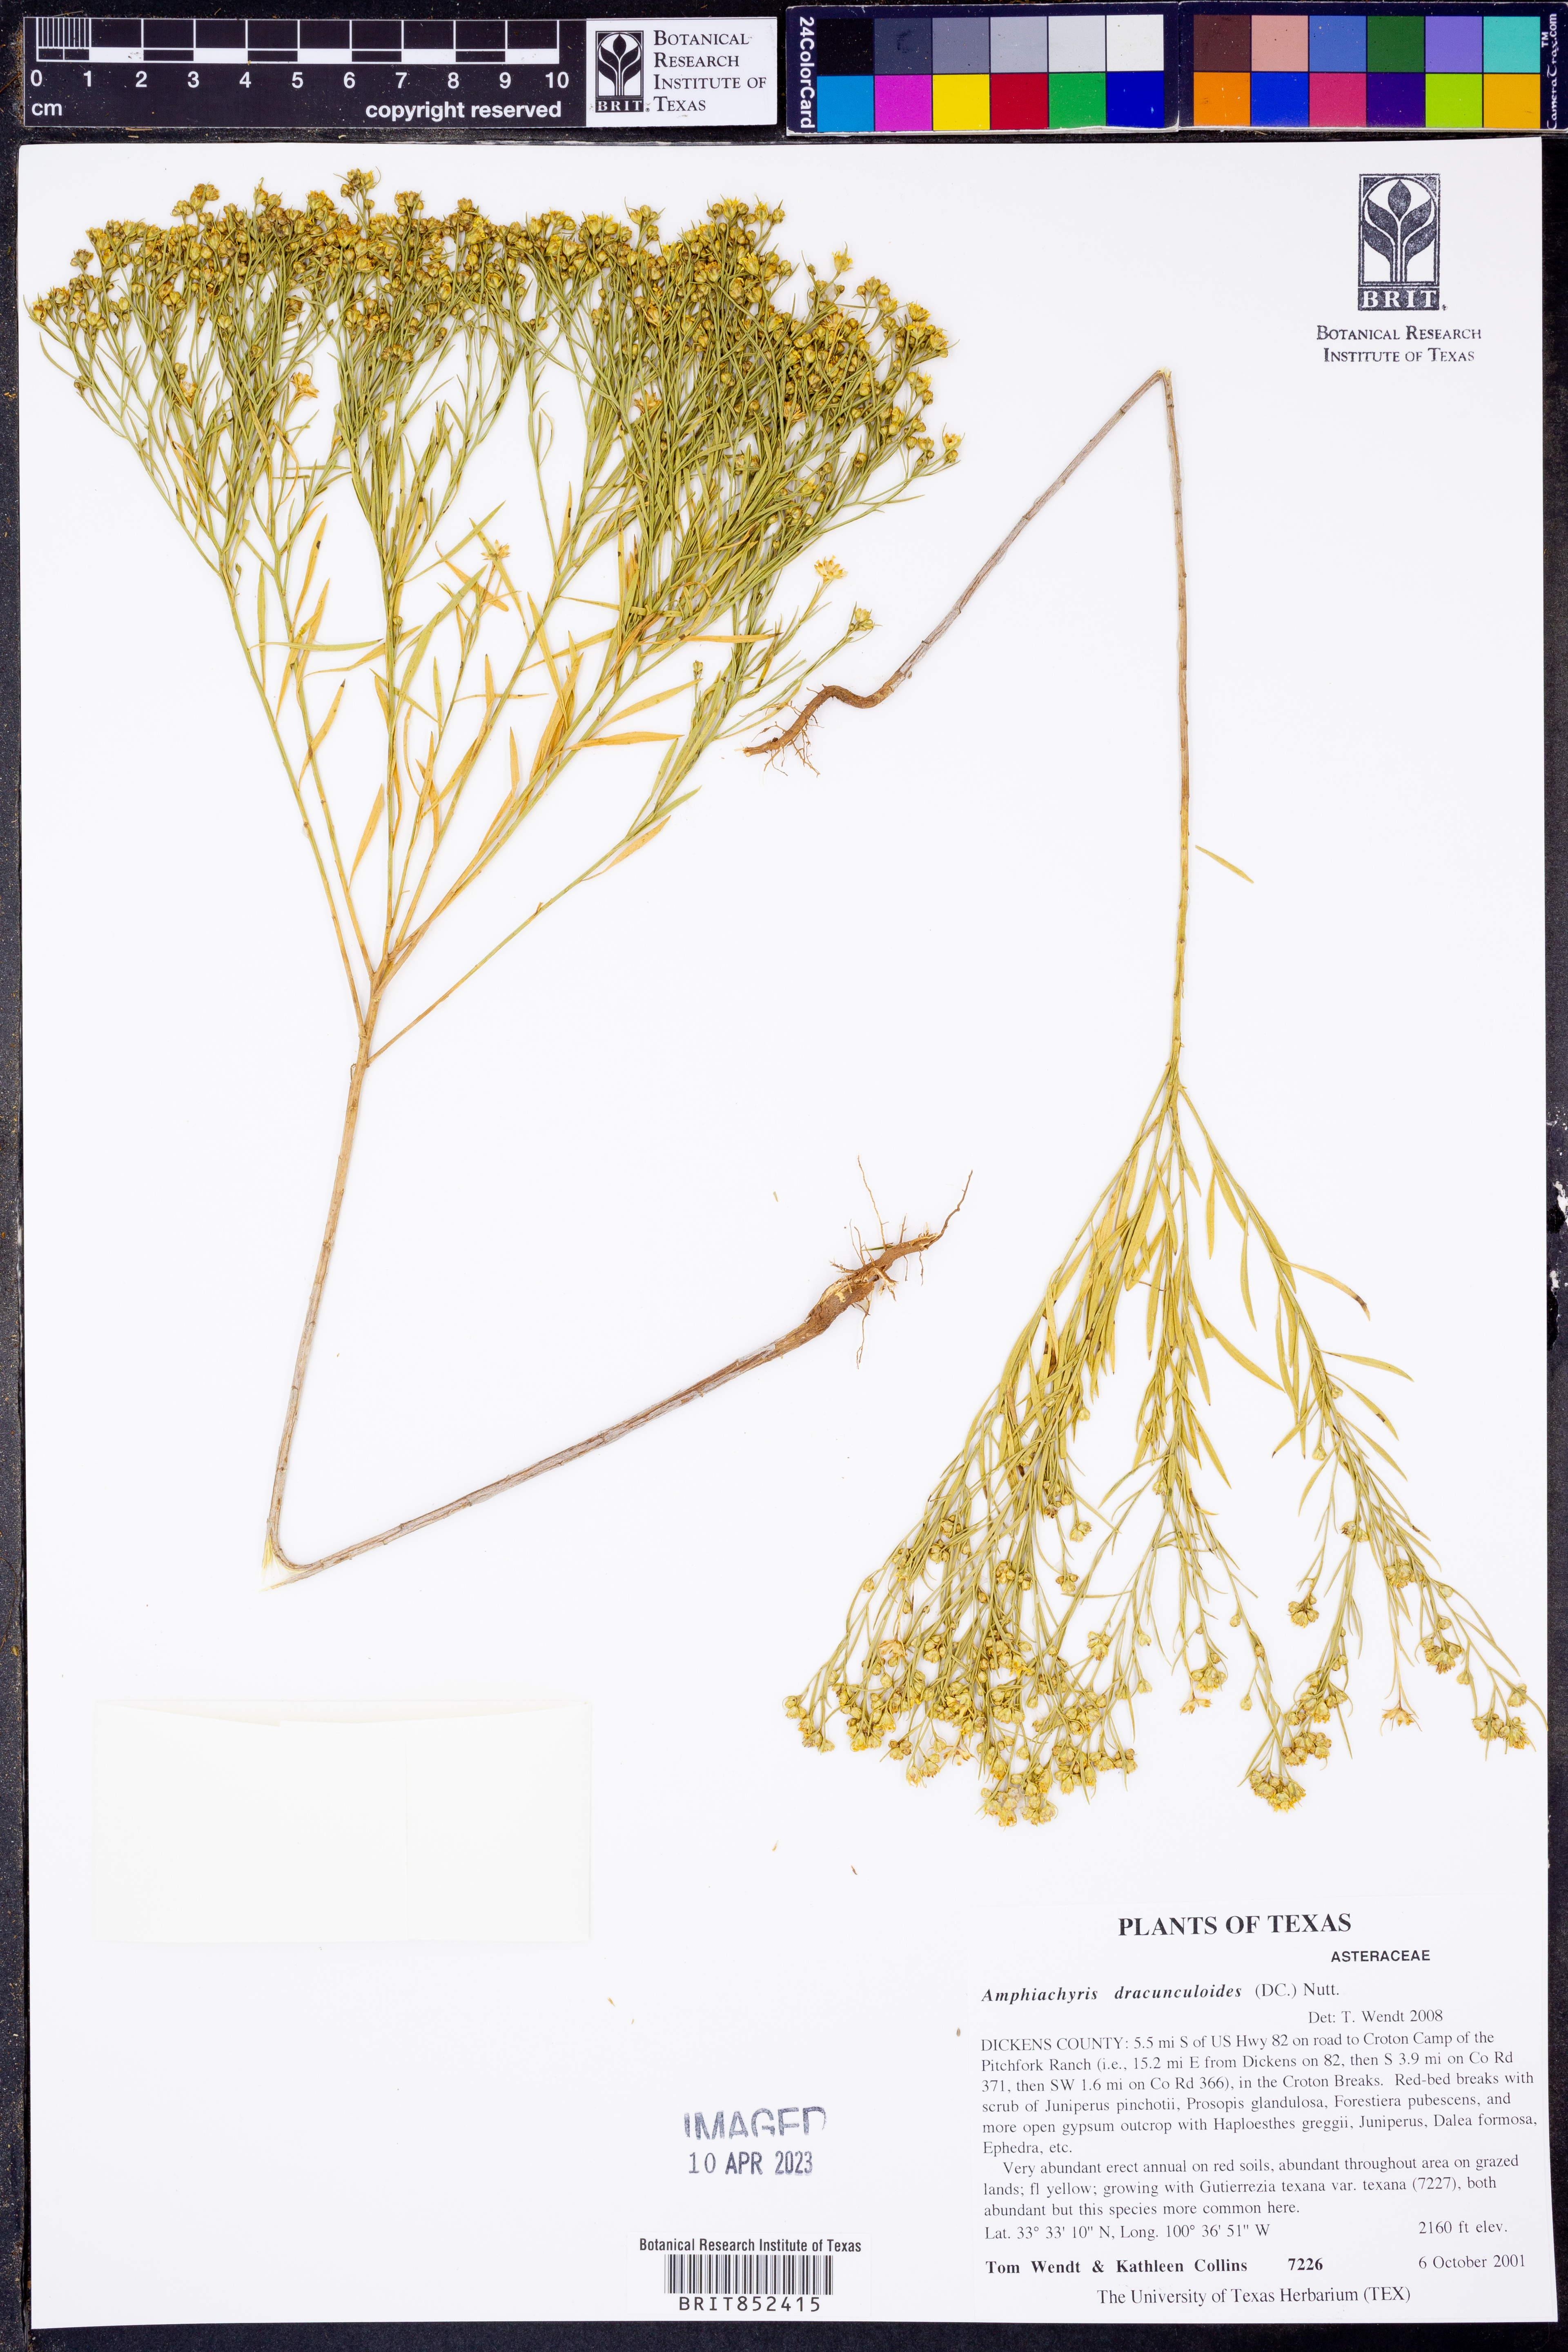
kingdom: Plantae
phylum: Tracheophyta
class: Magnoliopsida
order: Asterales
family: Asteraceae
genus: Amphiachyris
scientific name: Amphiachyris dracunculoides
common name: Broomweed
